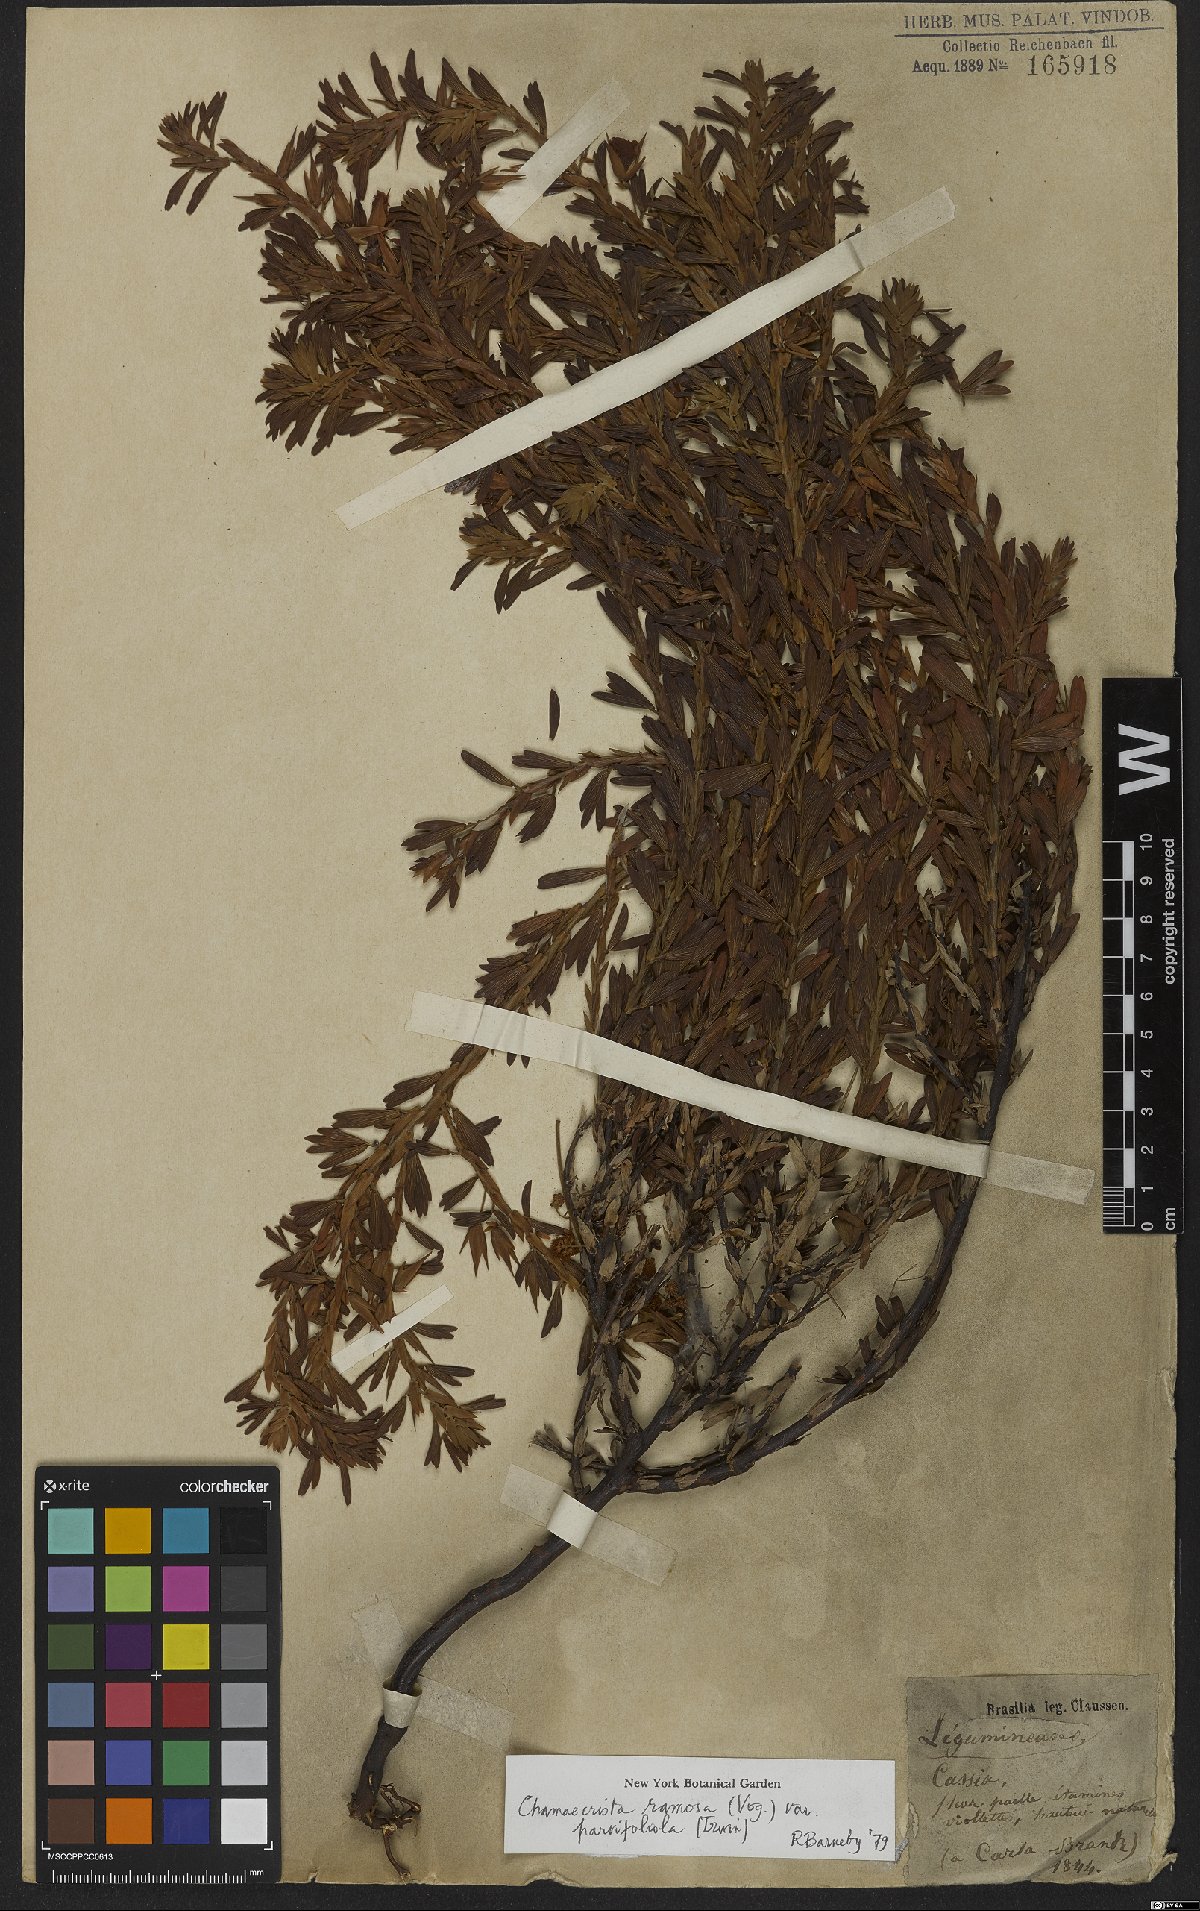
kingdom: Plantae
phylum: Tracheophyta
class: Magnoliopsida
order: Fabales
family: Fabaceae
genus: Chamaecrista
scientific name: Chamaecrista ramosa
